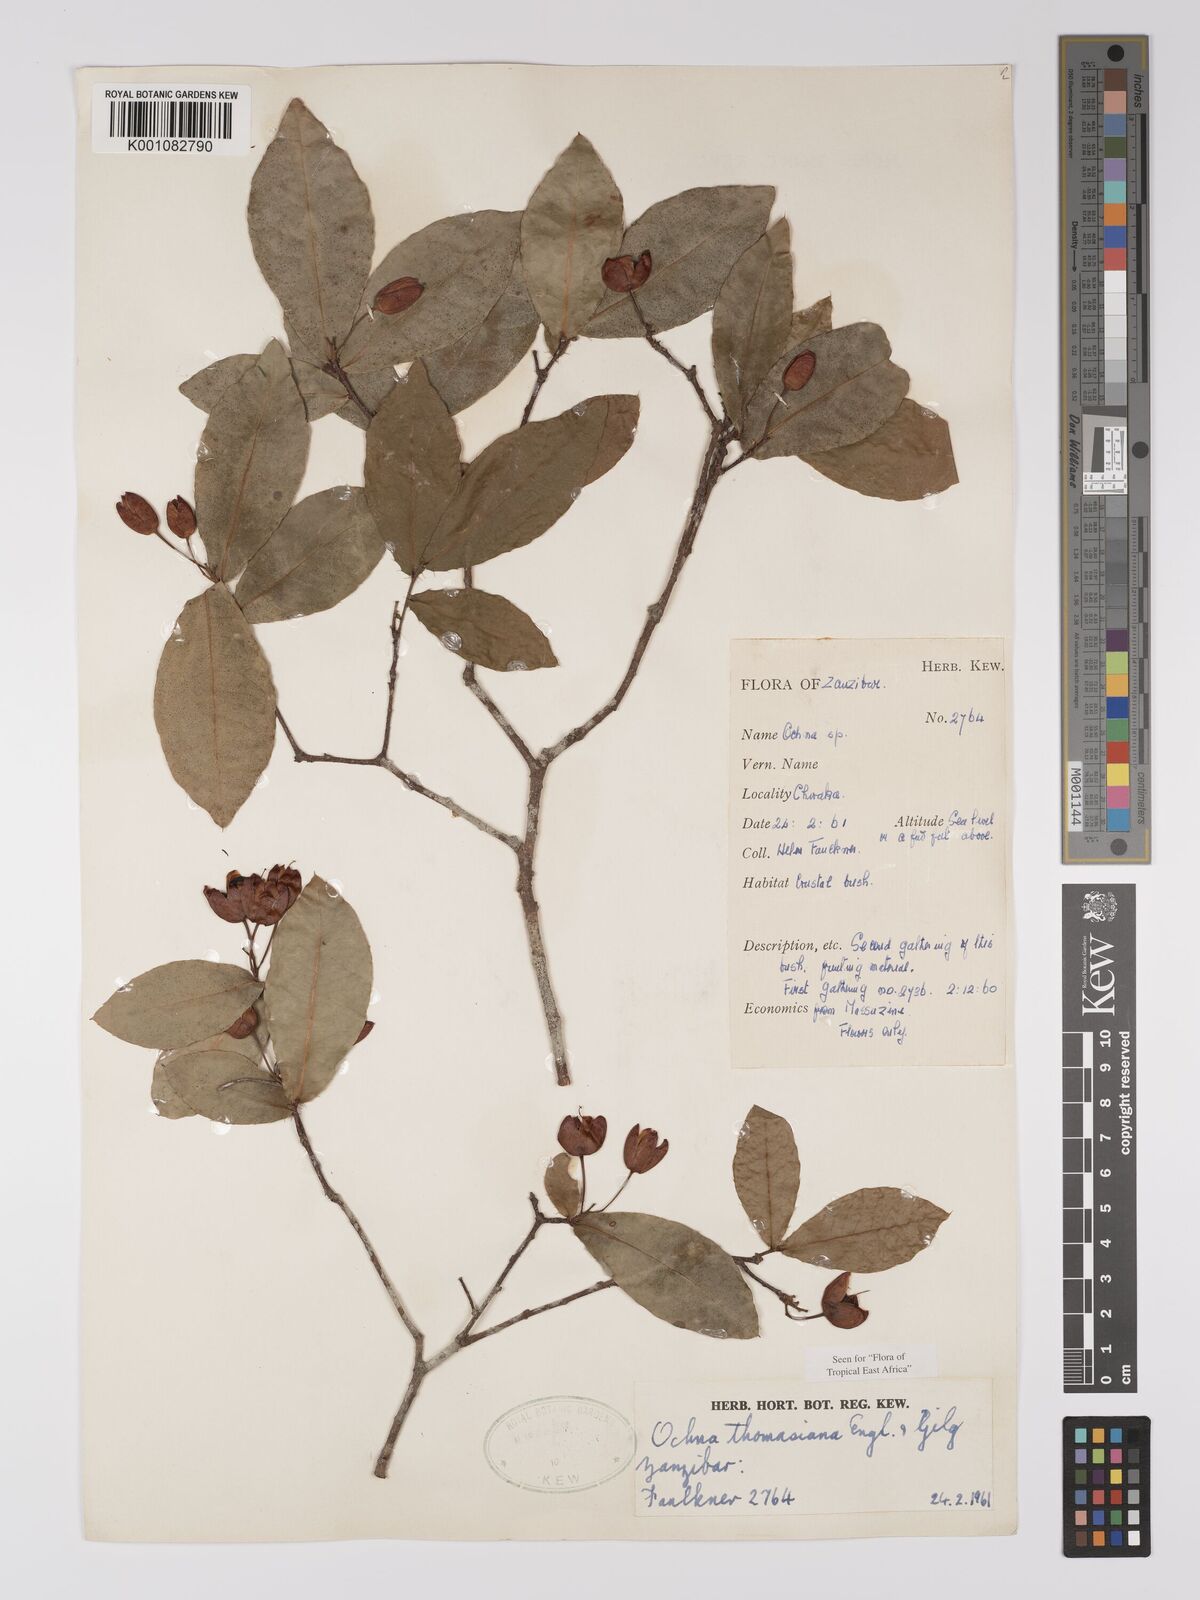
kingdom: Plantae
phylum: Tracheophyta
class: Magnoliopsida
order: Malpighiales
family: Ochnaceae
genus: Ochna
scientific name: Ochna thomasiana
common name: Thomas' bird's-eye bush
